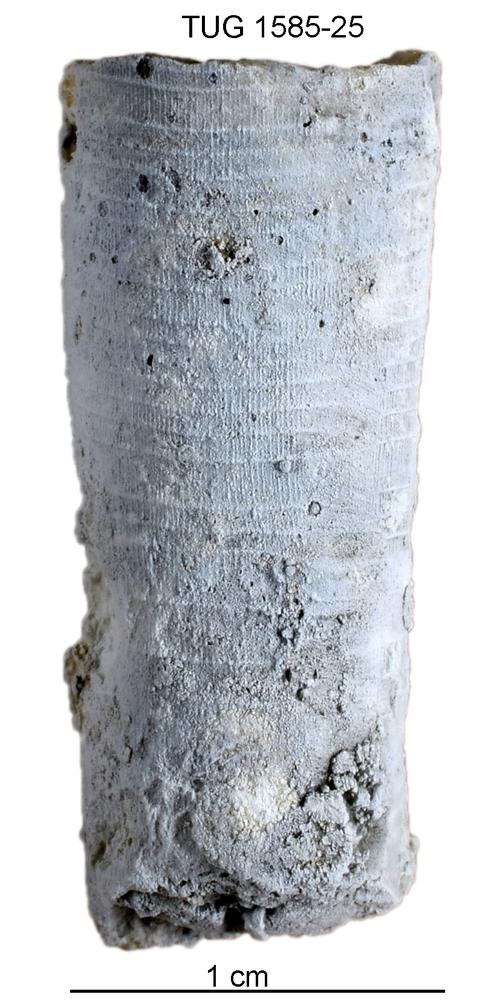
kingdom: Animalia
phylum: Mollusca
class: Cephalopoda
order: Orthocerida
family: Proteoceratidae
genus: Isorthoceras
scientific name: Isorthoceras cavi
